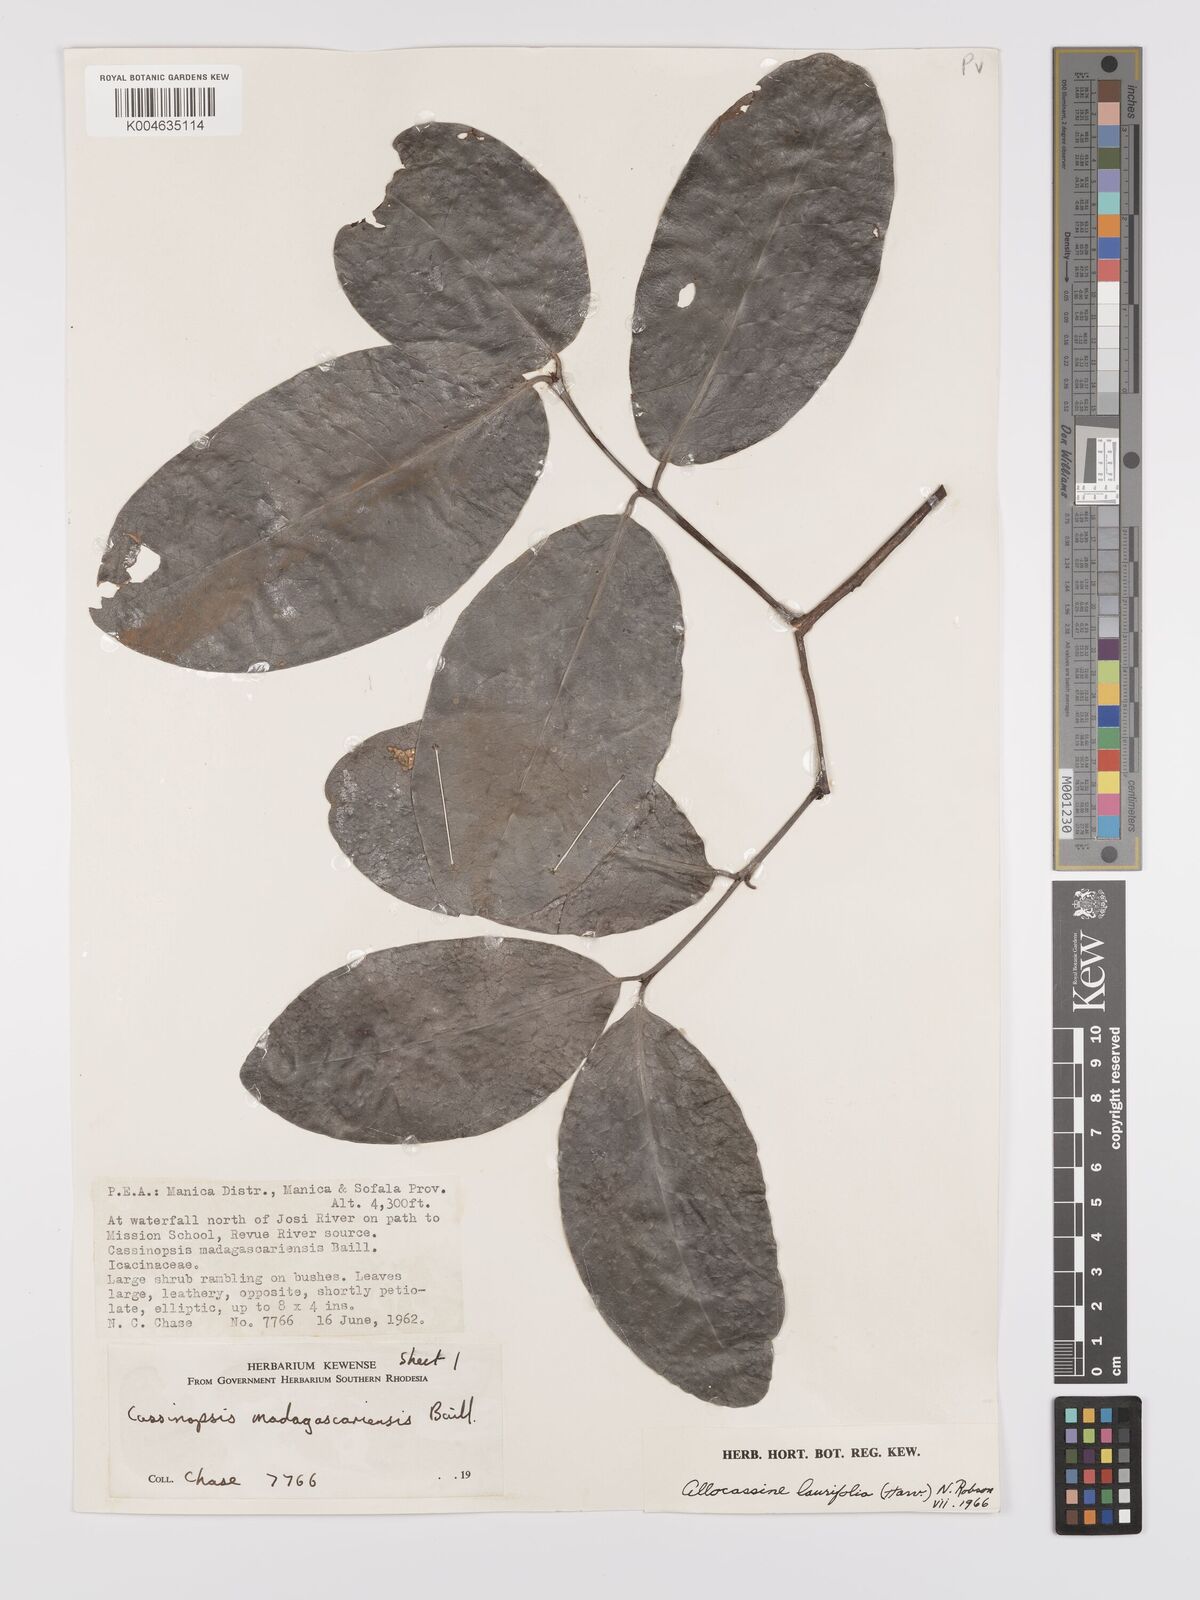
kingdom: Plantae
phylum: Tracheophyta
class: Magnoliopsida
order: Celastrales
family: Celastraceae
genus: Allocassine
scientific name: Allocassine laurifolia
